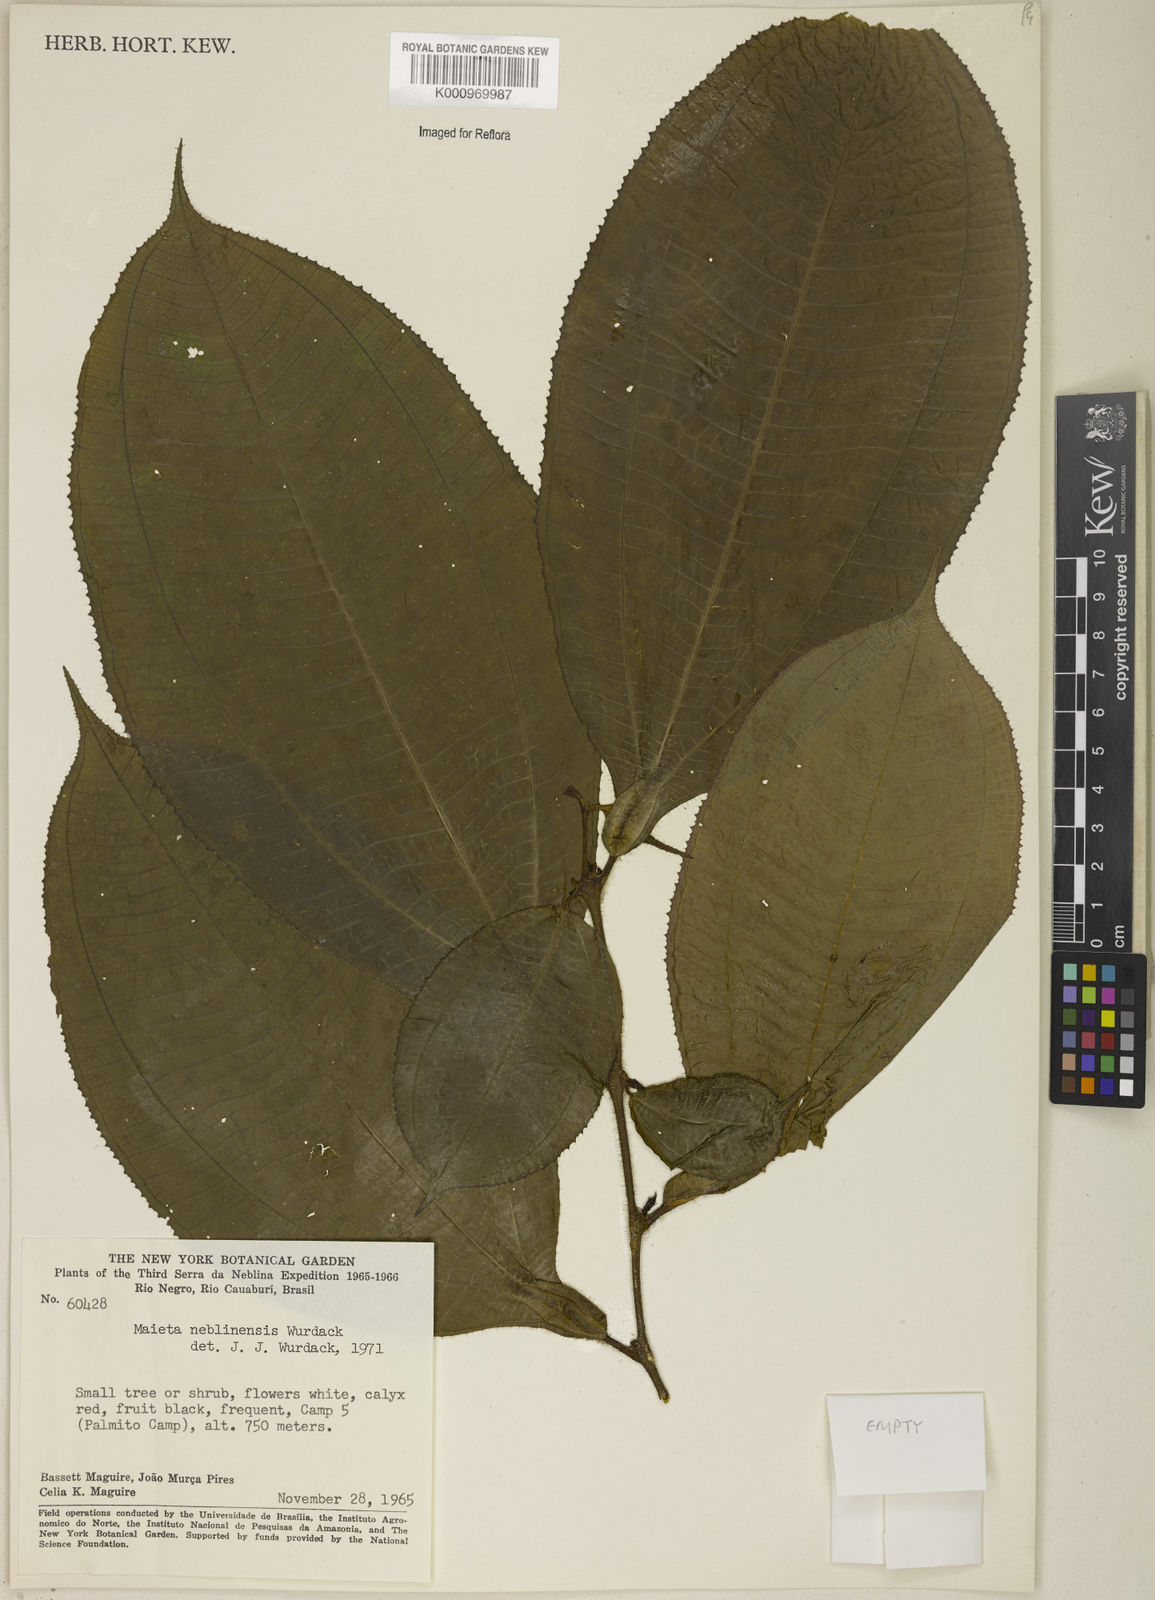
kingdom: Plantae
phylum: Tracheophyta
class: Magnoliopsida
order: Myrtales
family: Melastomataceae
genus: Miconia
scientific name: Miconia alatiflora
